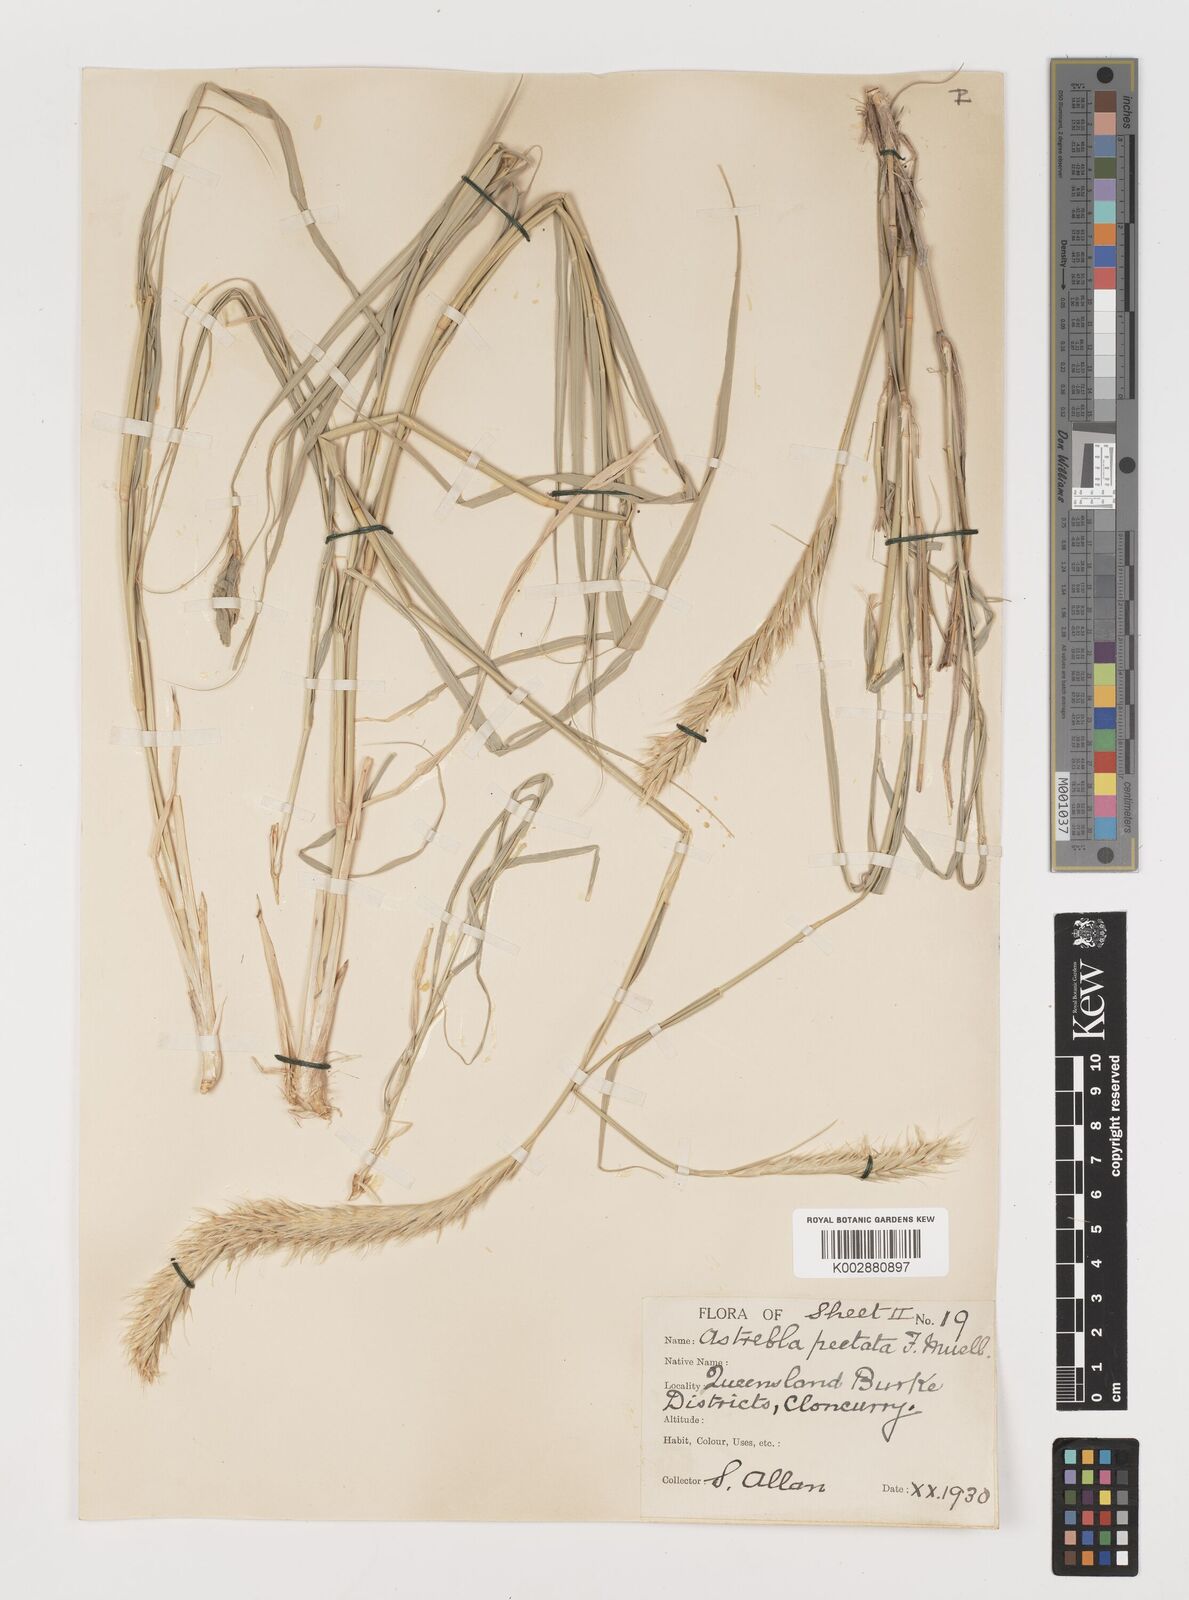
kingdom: Plantae
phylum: Tracheophyta
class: Liliopsida
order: Poales
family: Poaceae
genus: Astrebla
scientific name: Astrebla pectinata
